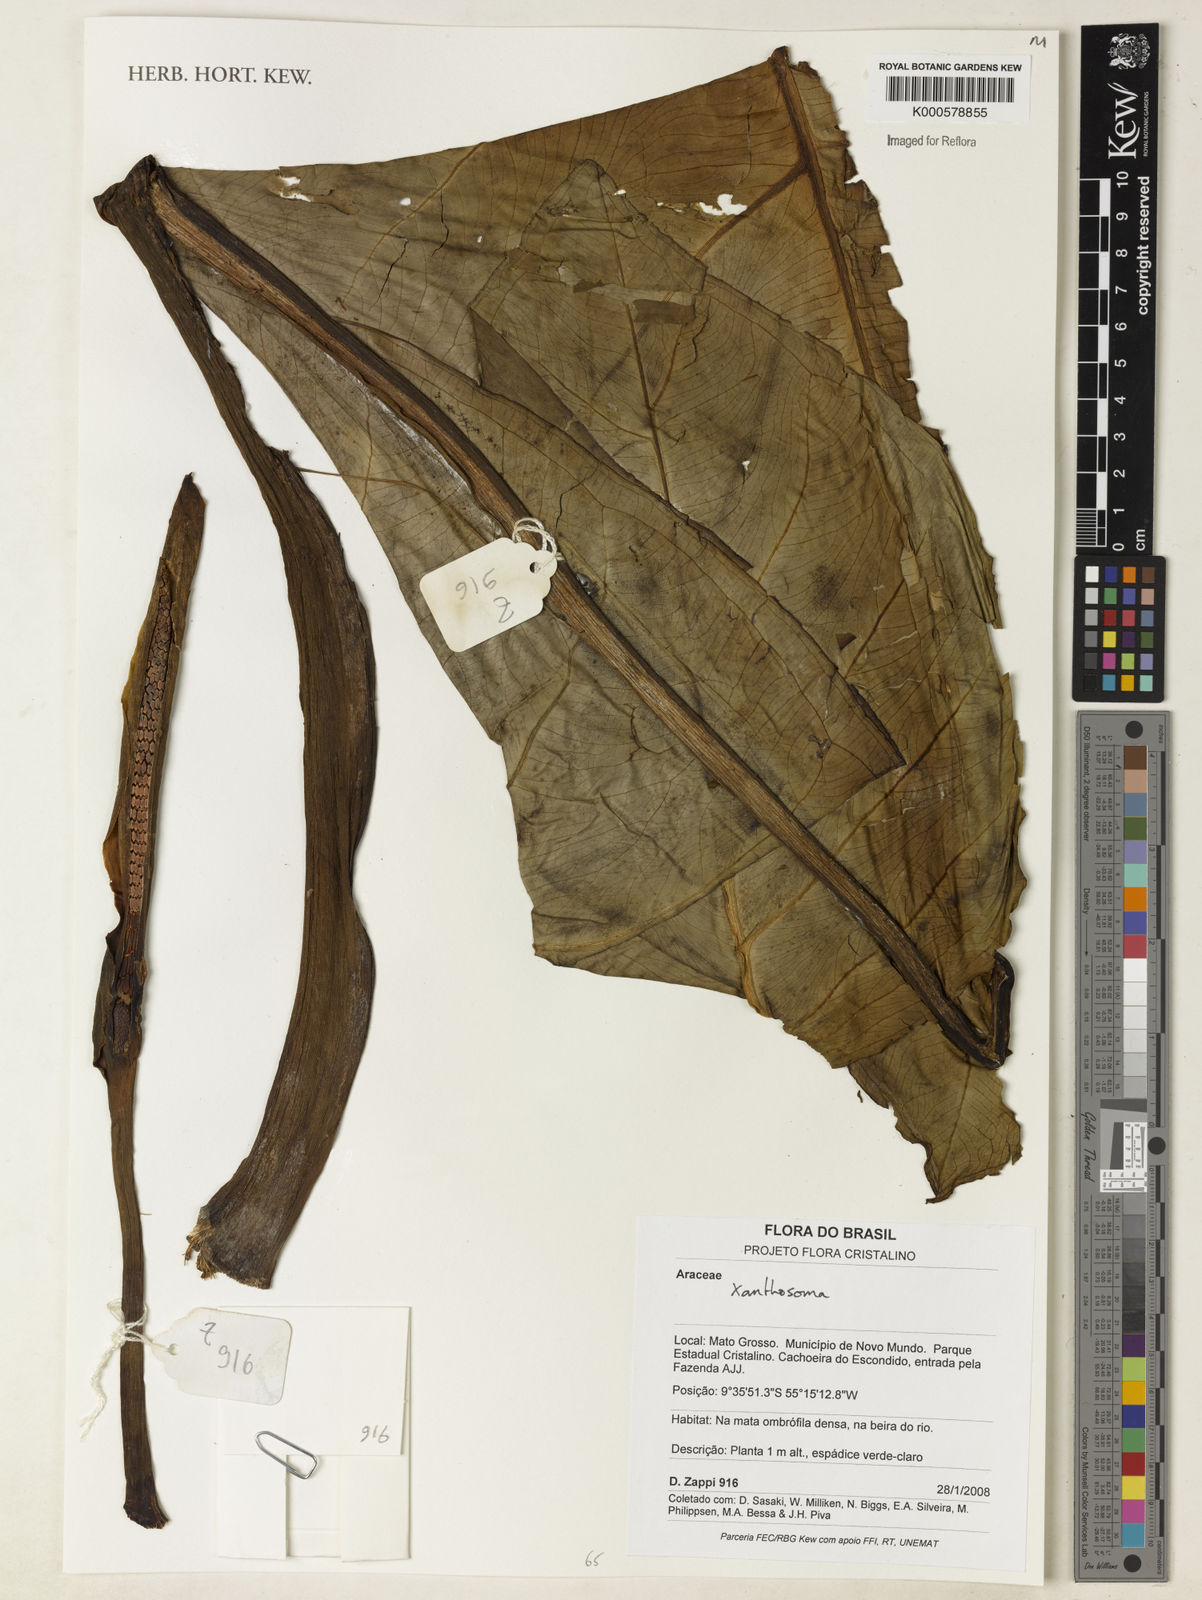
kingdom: Plantae
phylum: Tracheophyta
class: Liliopsida
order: Alismatales
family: Araceae
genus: Xanthosoma
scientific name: Xanthosoma
